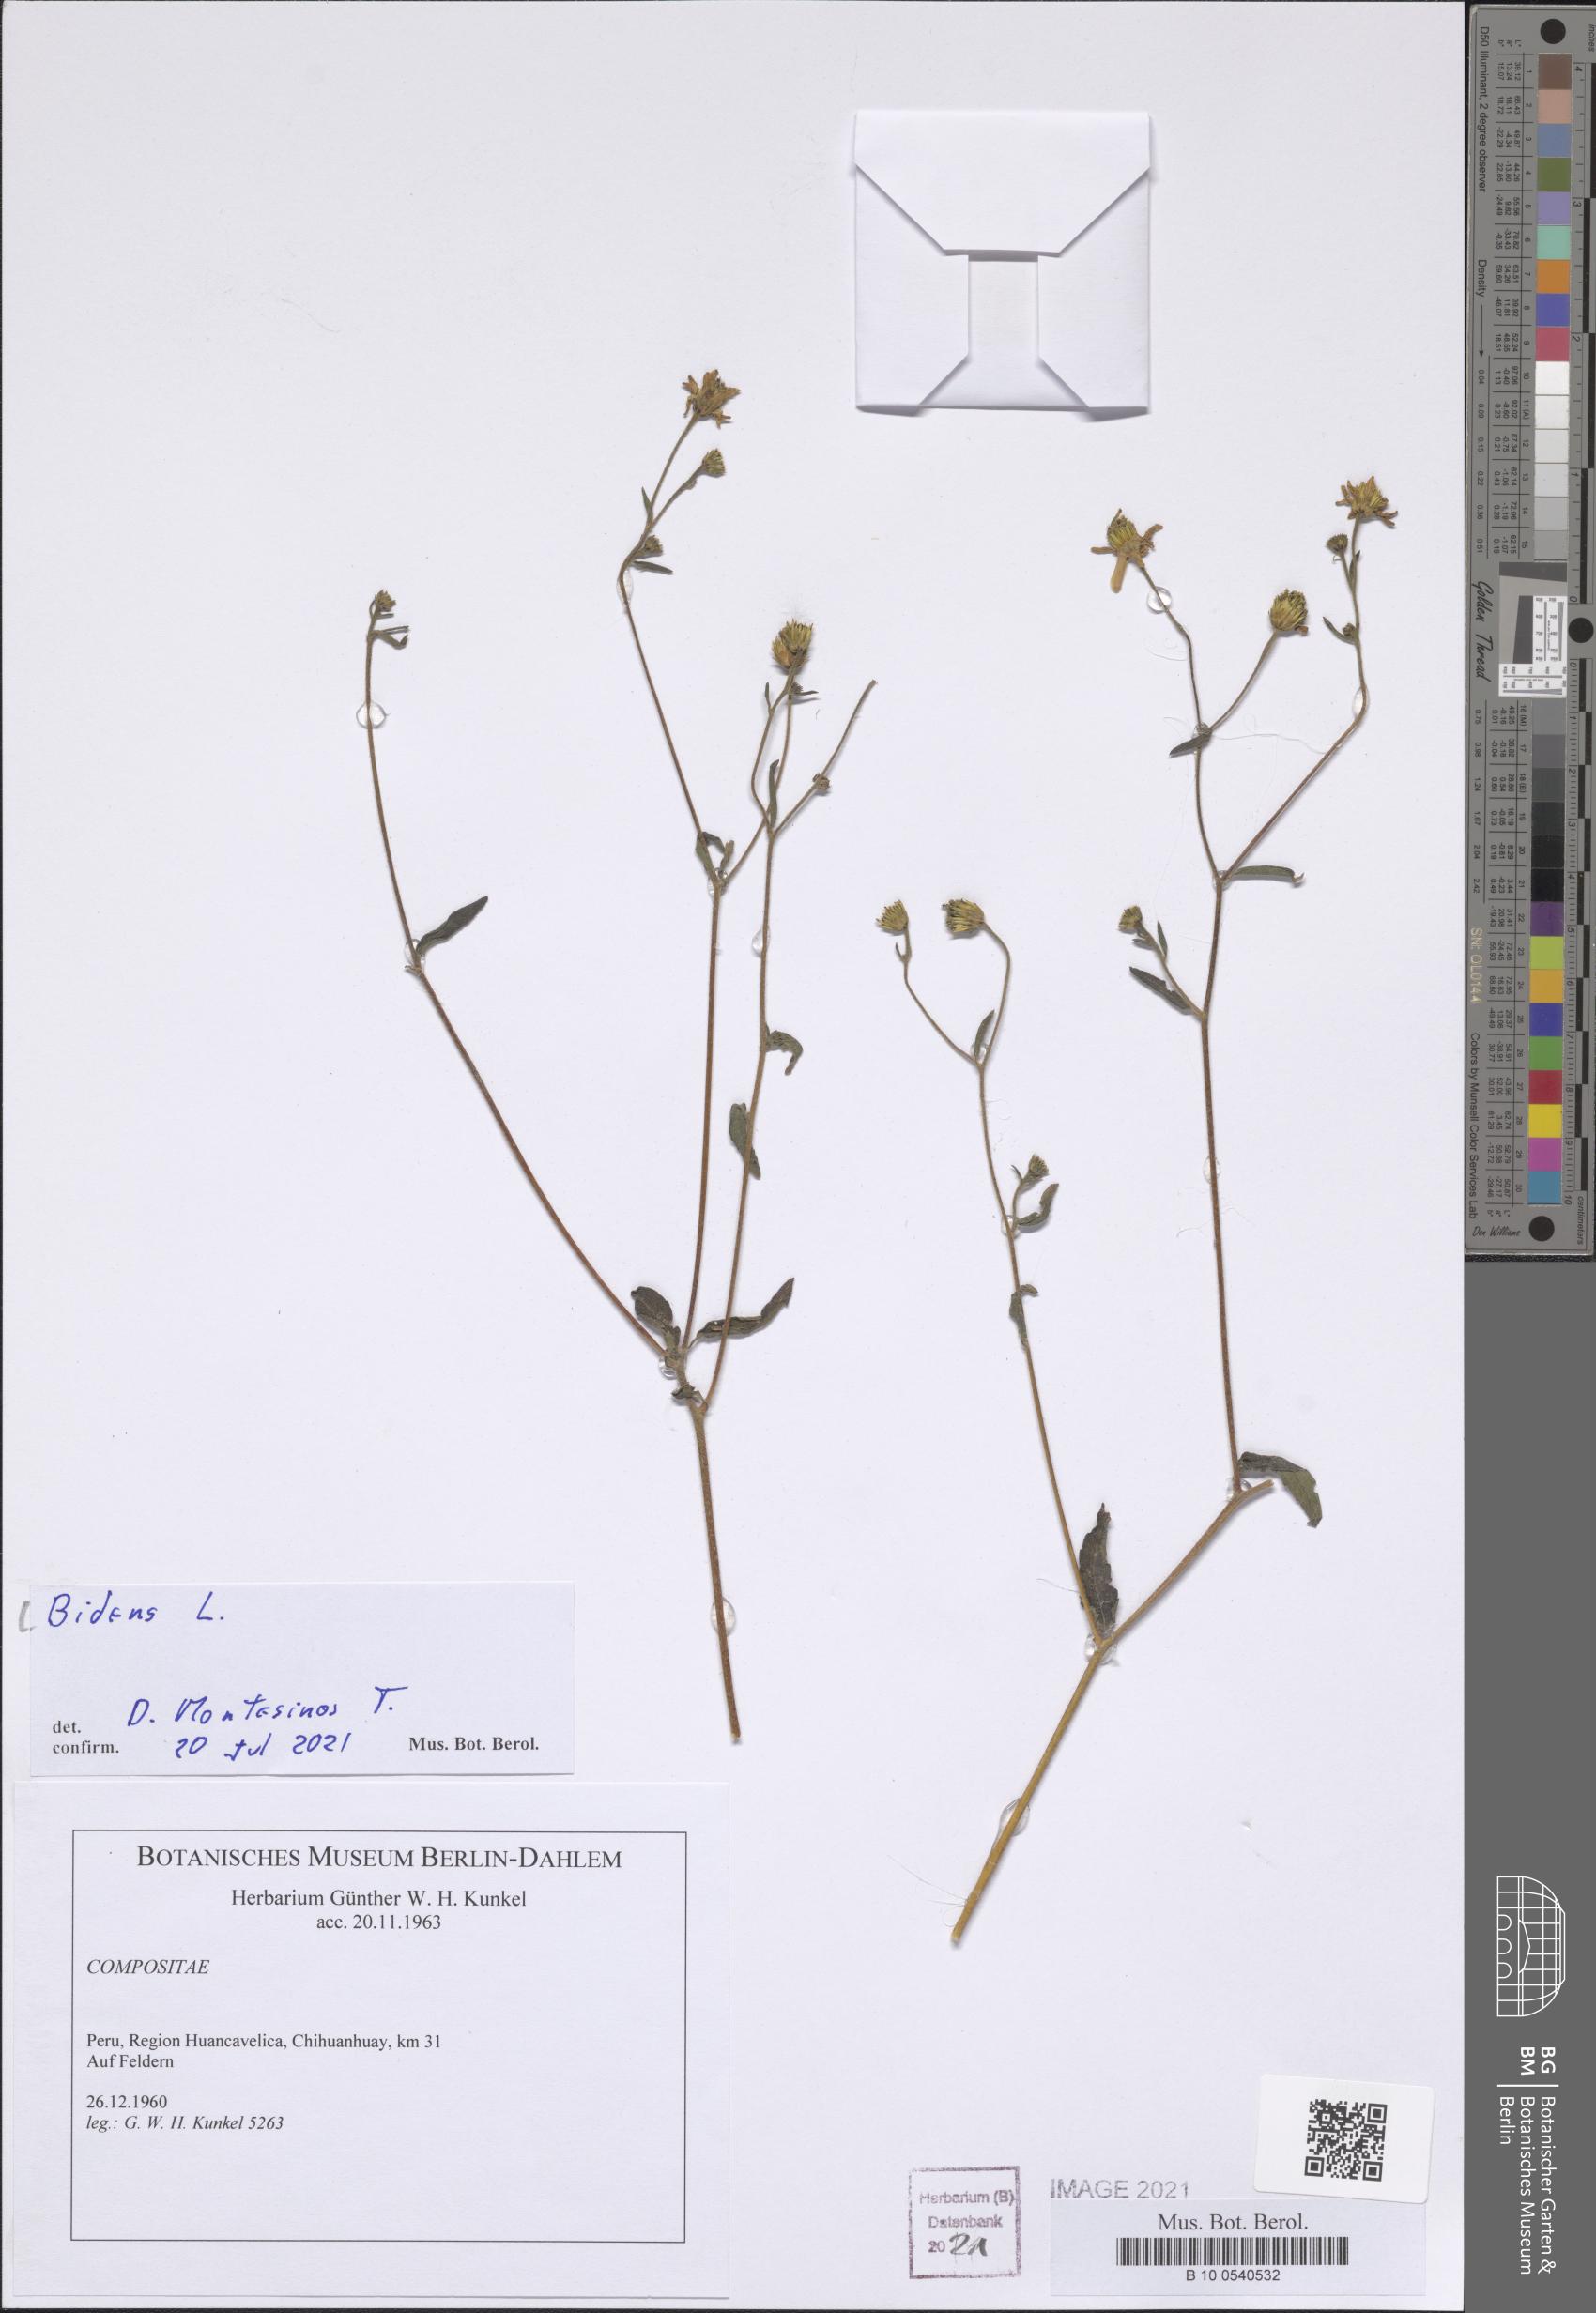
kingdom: Plantae
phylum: Tracheophyta
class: Magnoliopsida
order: Asterales
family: Asteraceae
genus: Bidens
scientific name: Bidens
